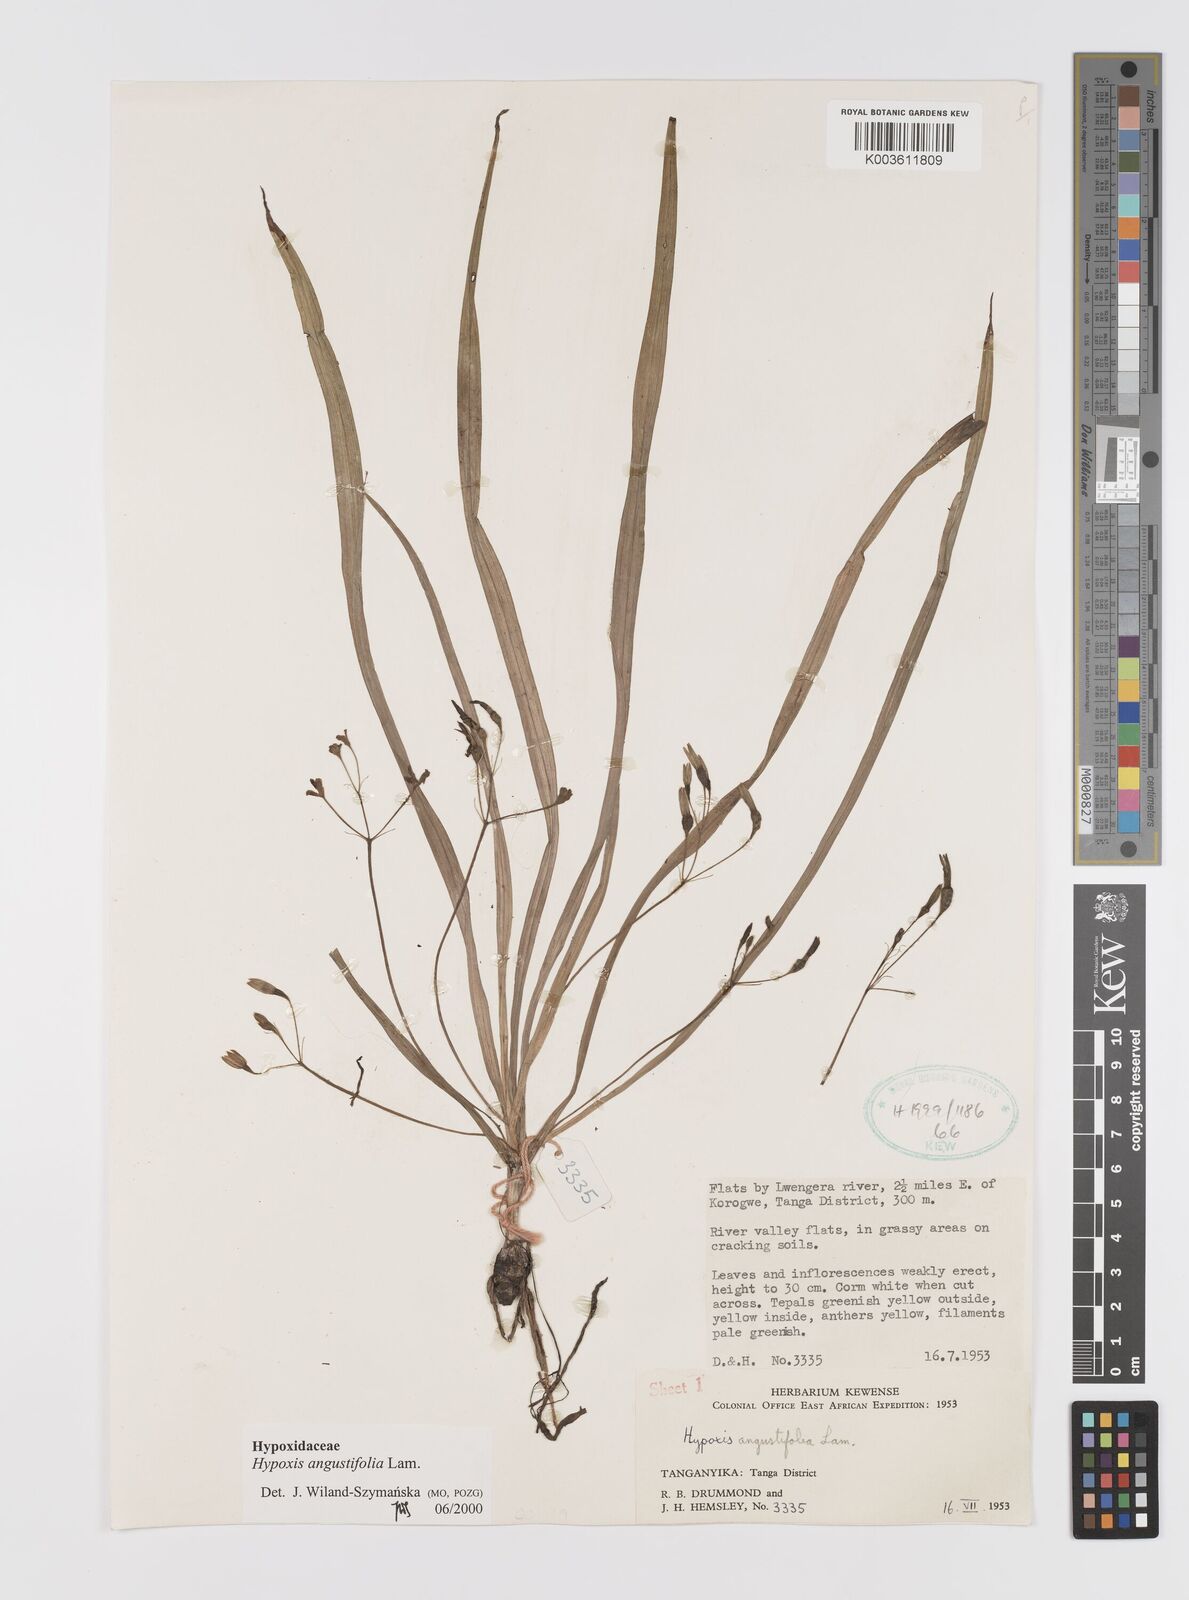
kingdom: Plantae
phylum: Tracheophyta
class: Liliopsida
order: Asparagales
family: Hypoxidaceae
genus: Hypoxis
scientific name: Hypoxis angustifolia
